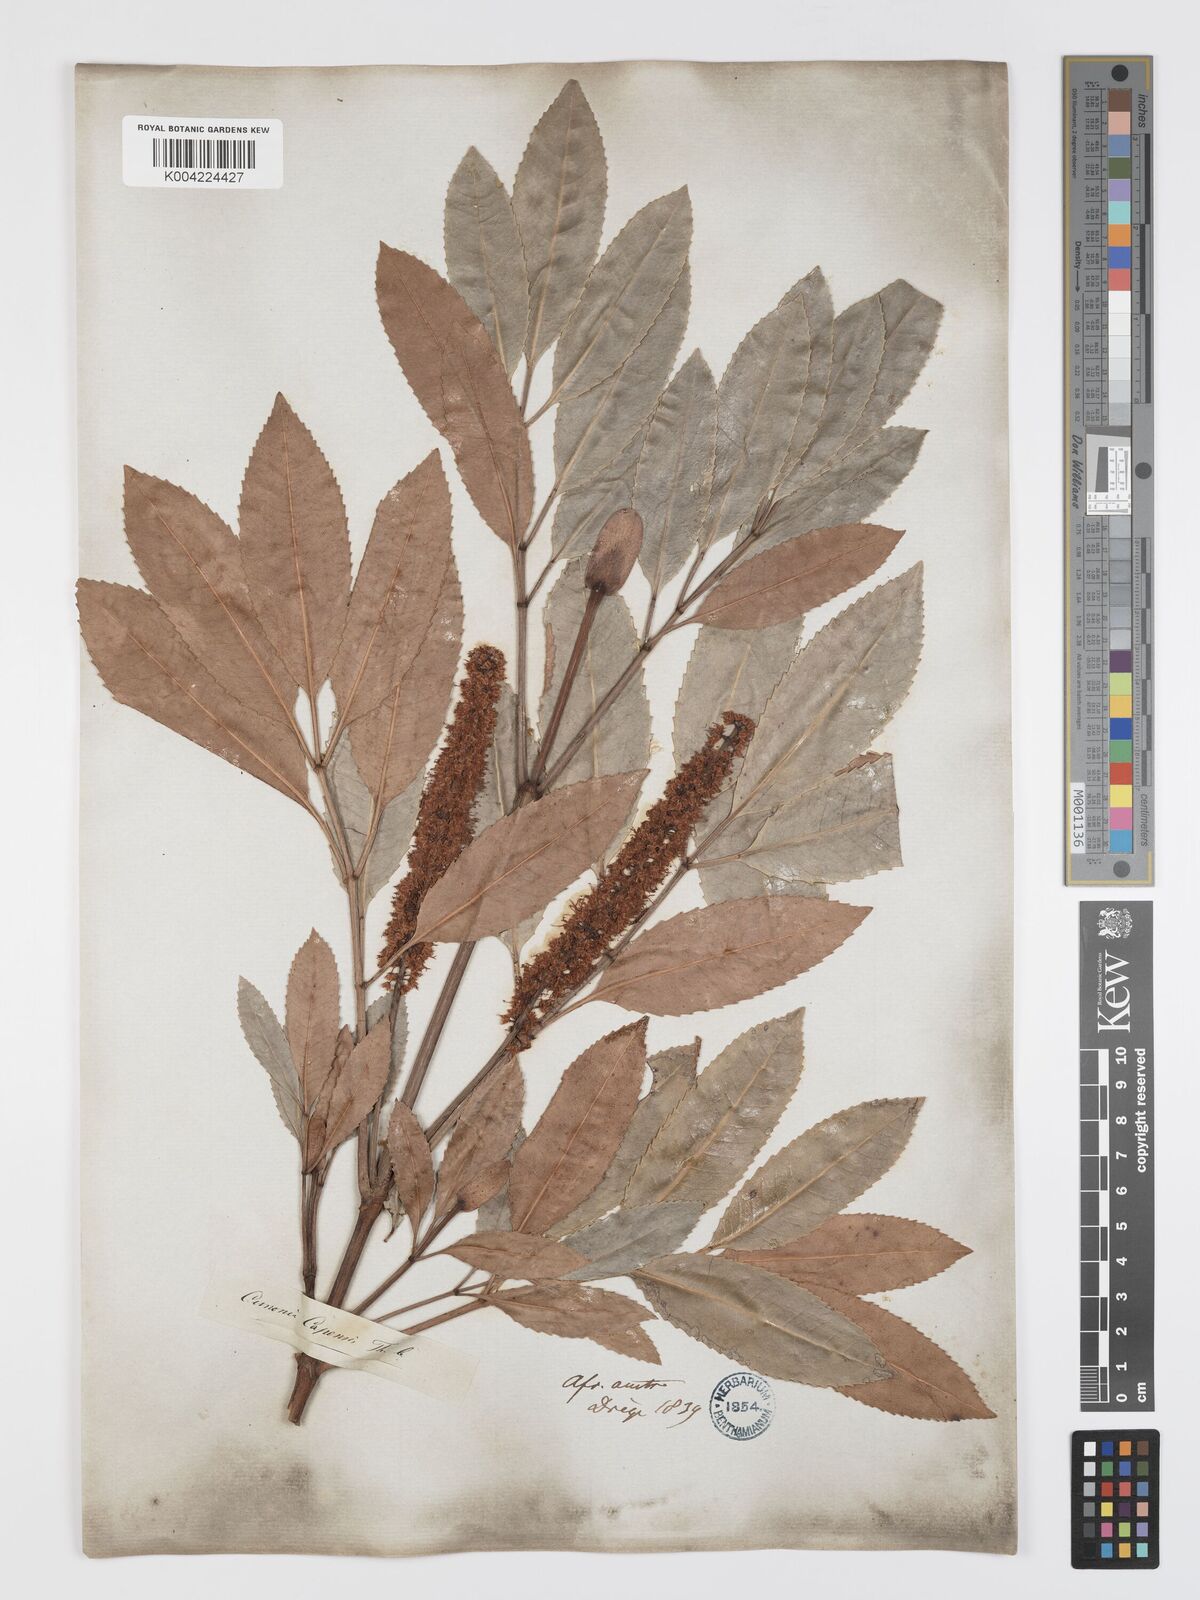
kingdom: Plantae
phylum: Tracheophyta
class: Magnoliopsida
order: Oxalidales
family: Cunoniaceae
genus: Cunonia
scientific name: Cunonia capensis
